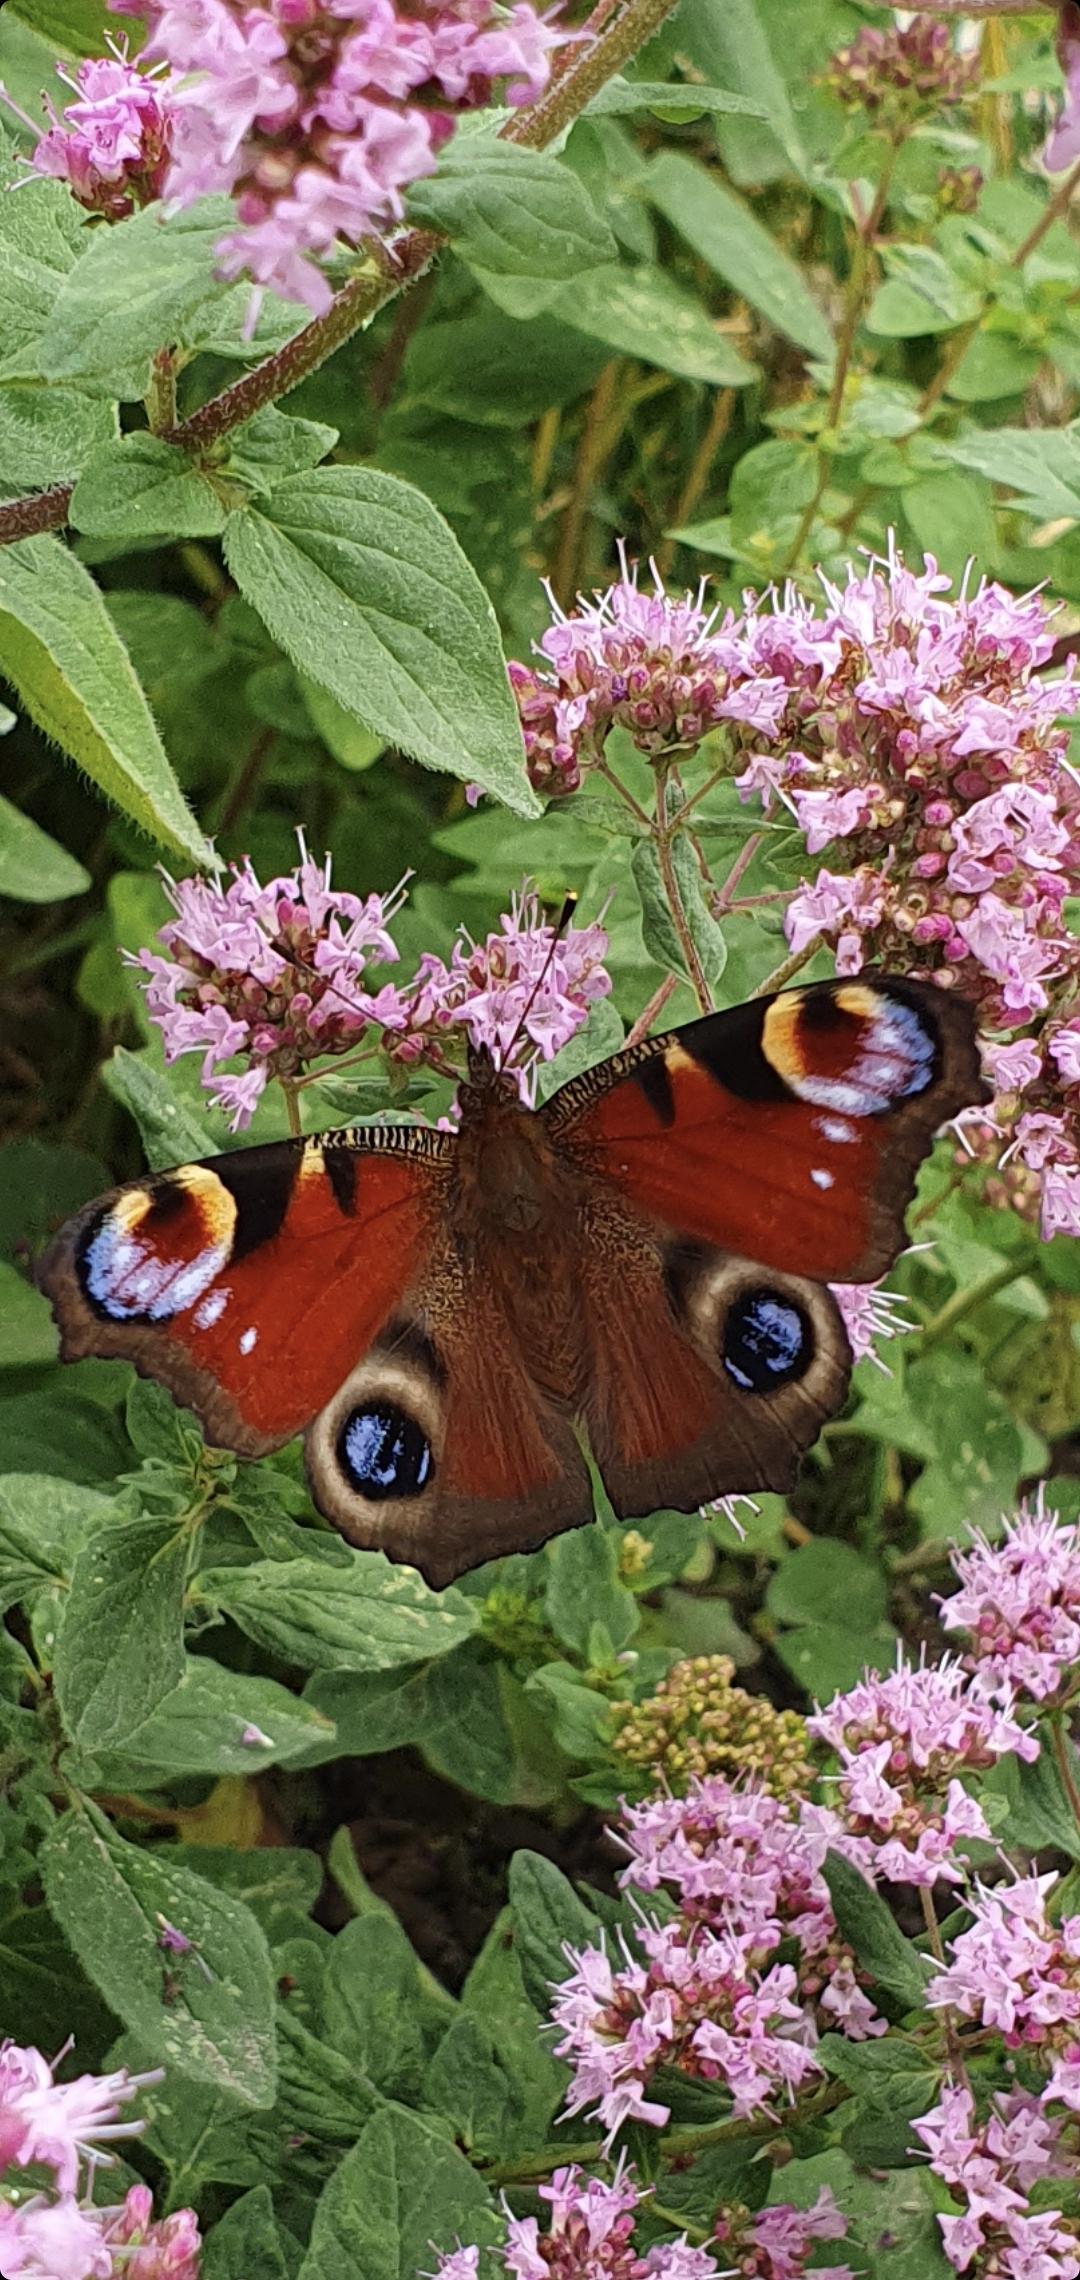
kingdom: Animalia
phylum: Arthropoda
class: Insecta
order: Lepidoptera
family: Nymphalidae
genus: Aglais
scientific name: Aglais io
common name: Dagpåfugleøje
